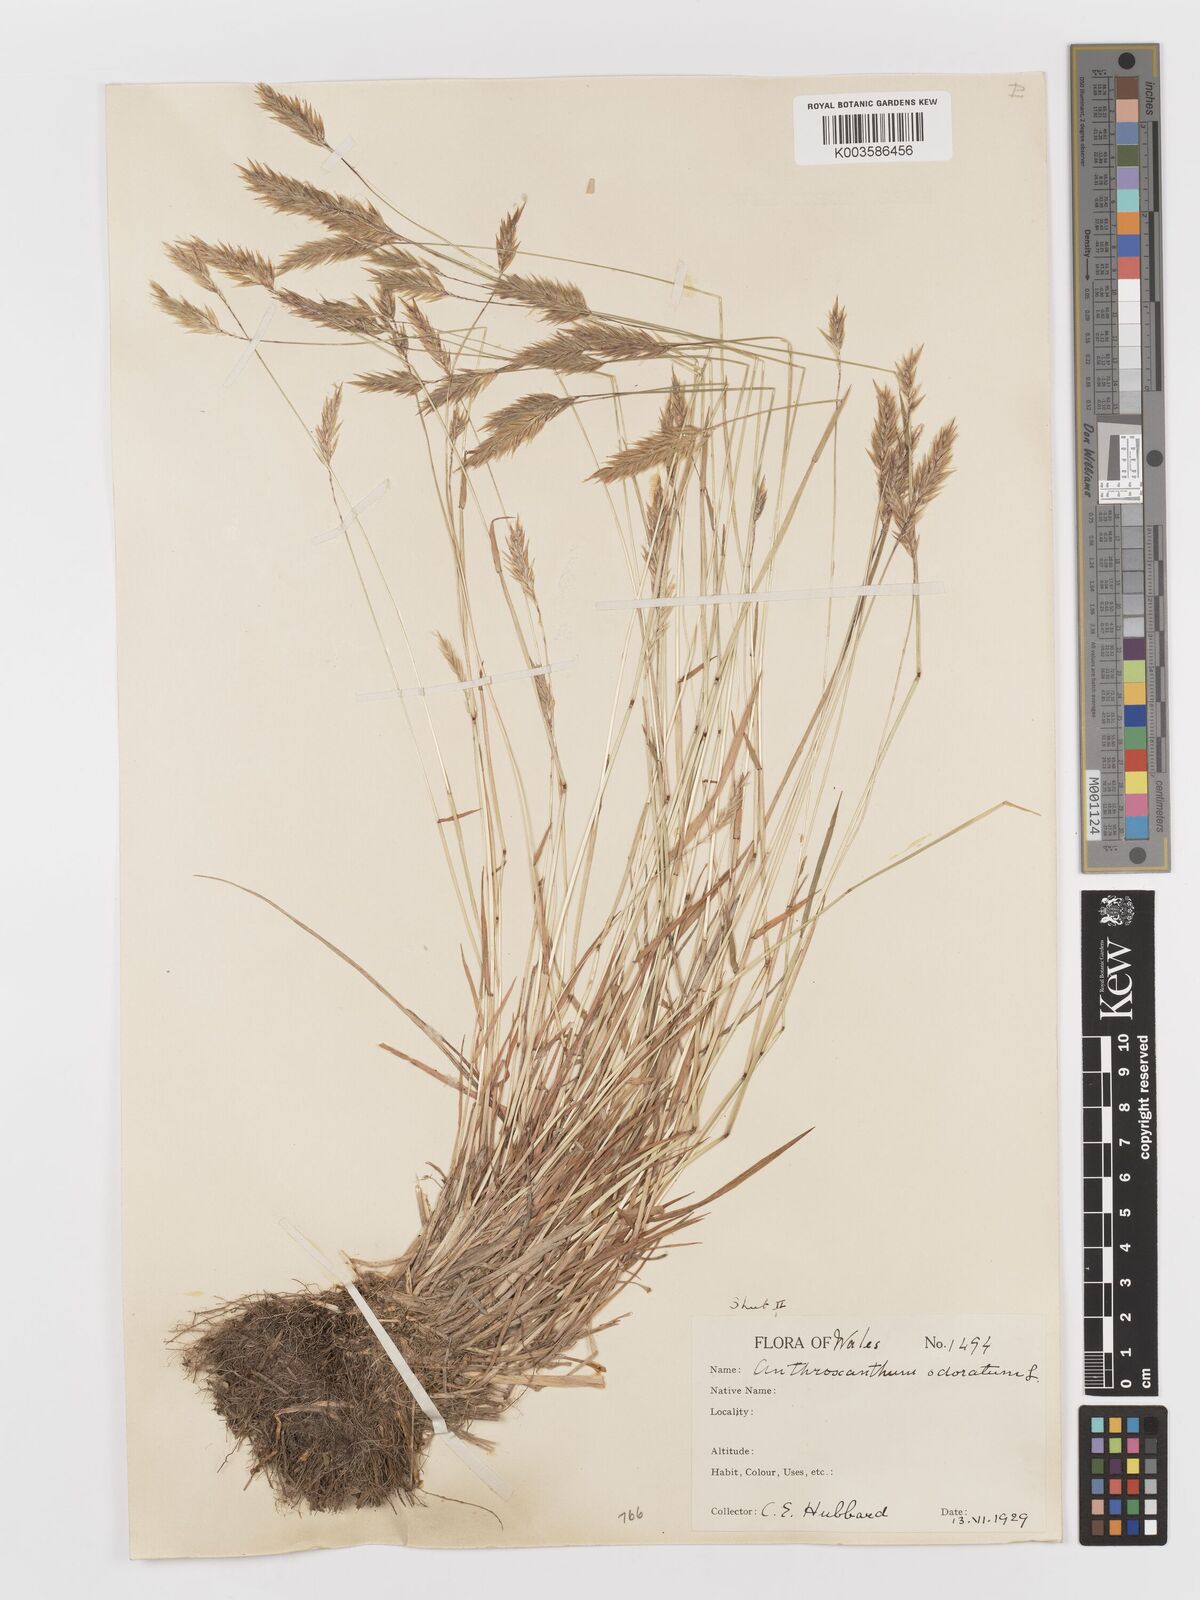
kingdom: Plantae
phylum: Tracheophyta
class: Liliopsida
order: Poales
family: Poaceae
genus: Anthoxanthum
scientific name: Anthoxanthum odoratum
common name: Sweet vernalgrass
